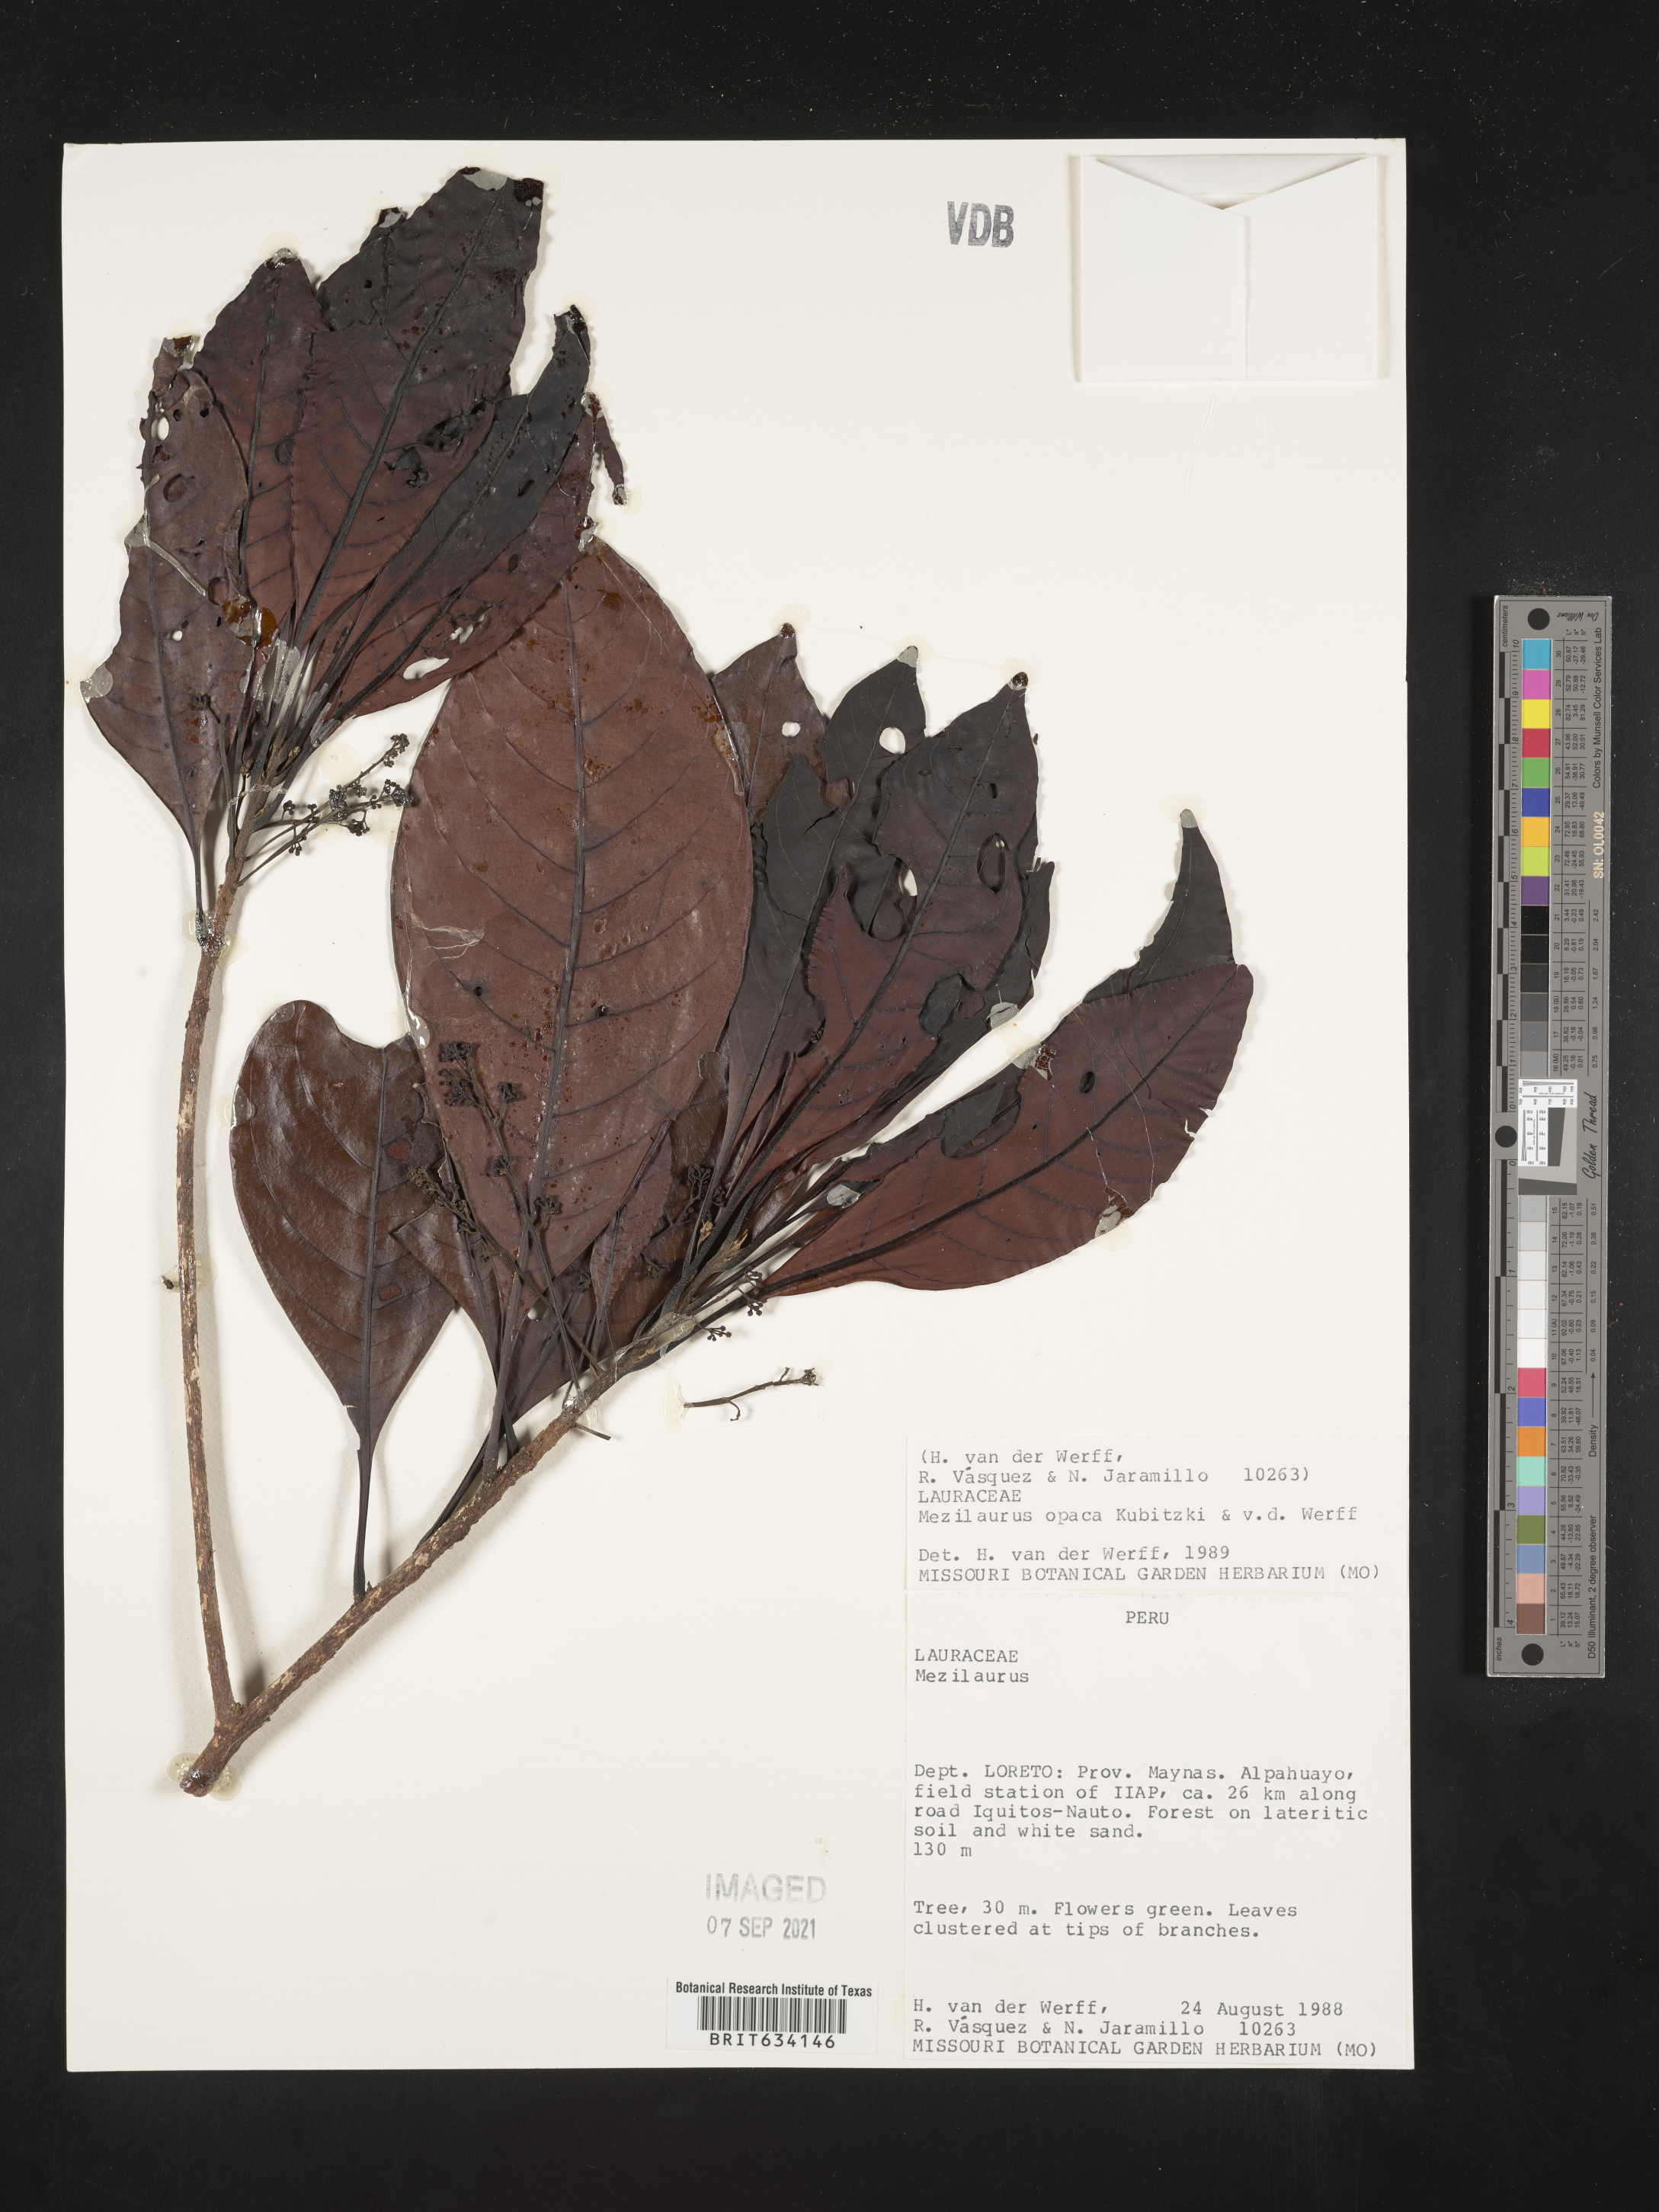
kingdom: Plantae
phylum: Tracheophyta
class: Magnoliopsida
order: Laurales
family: Lauraceae
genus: Mezilaurus
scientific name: Mezilaurus
